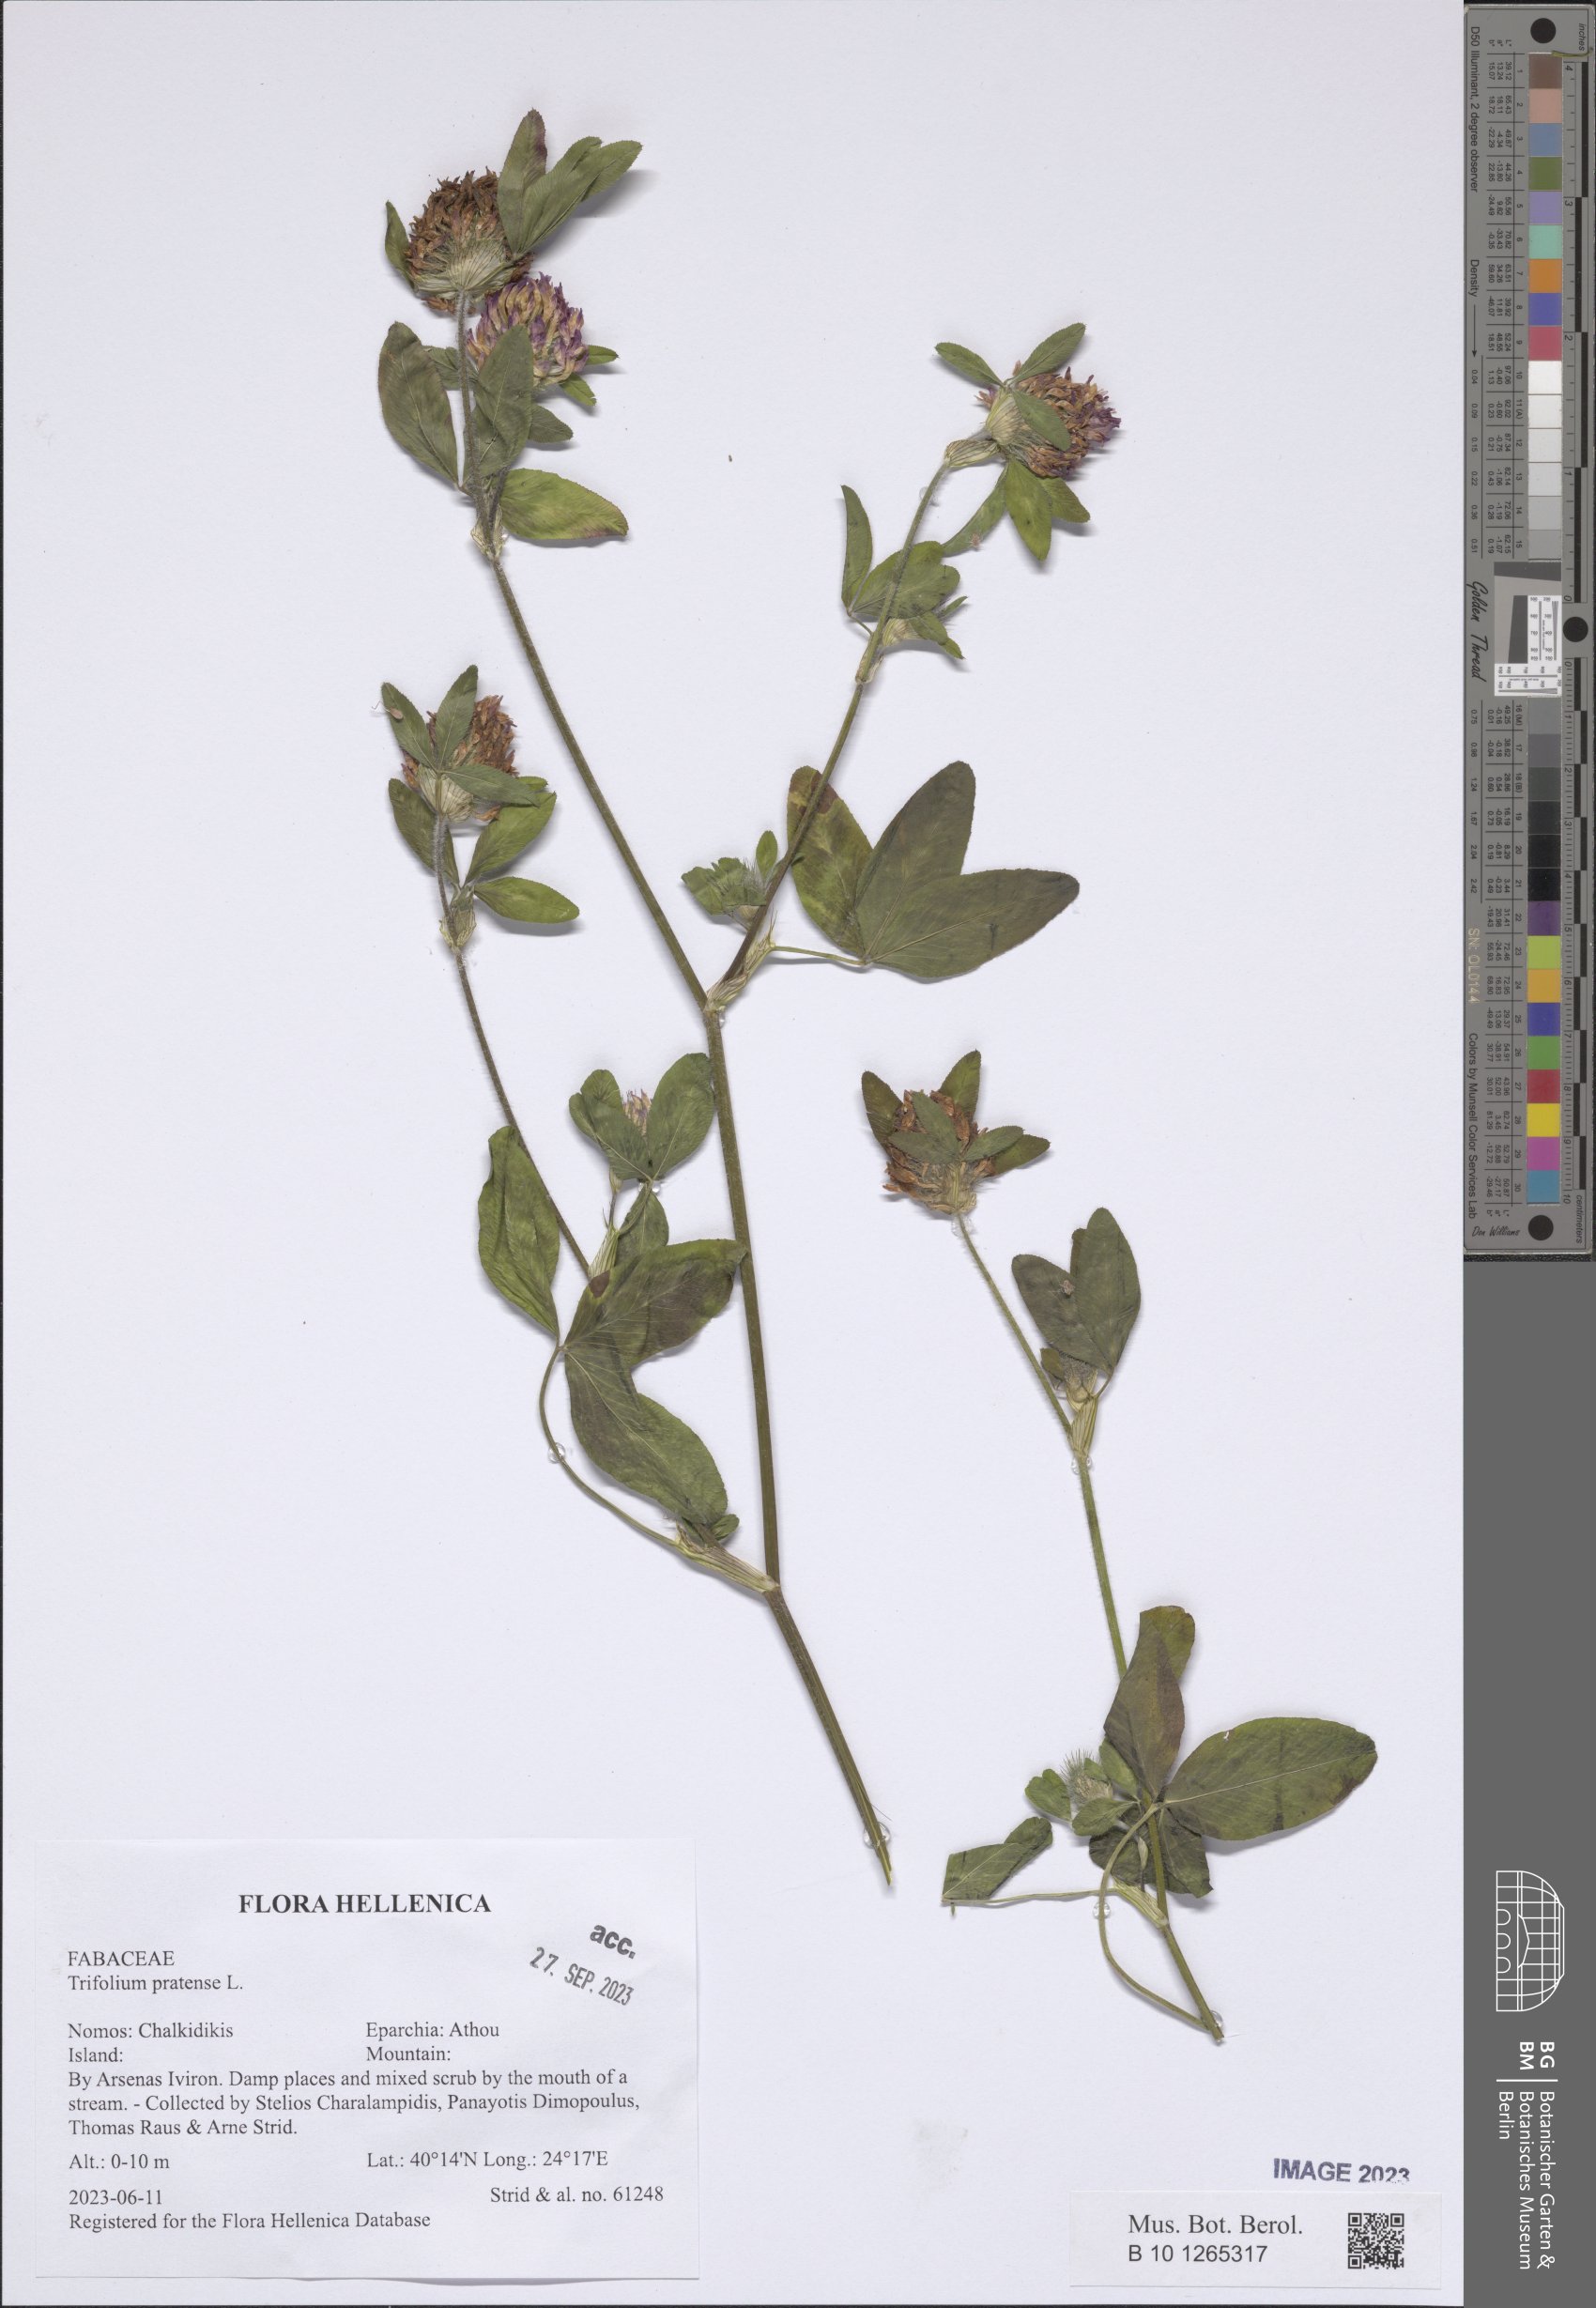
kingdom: Plantae
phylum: Tracheophyta
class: Magnoliopsida
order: Fabales
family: Fabaceae
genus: Trifolium
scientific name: Trifolium pratense
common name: Red clover
